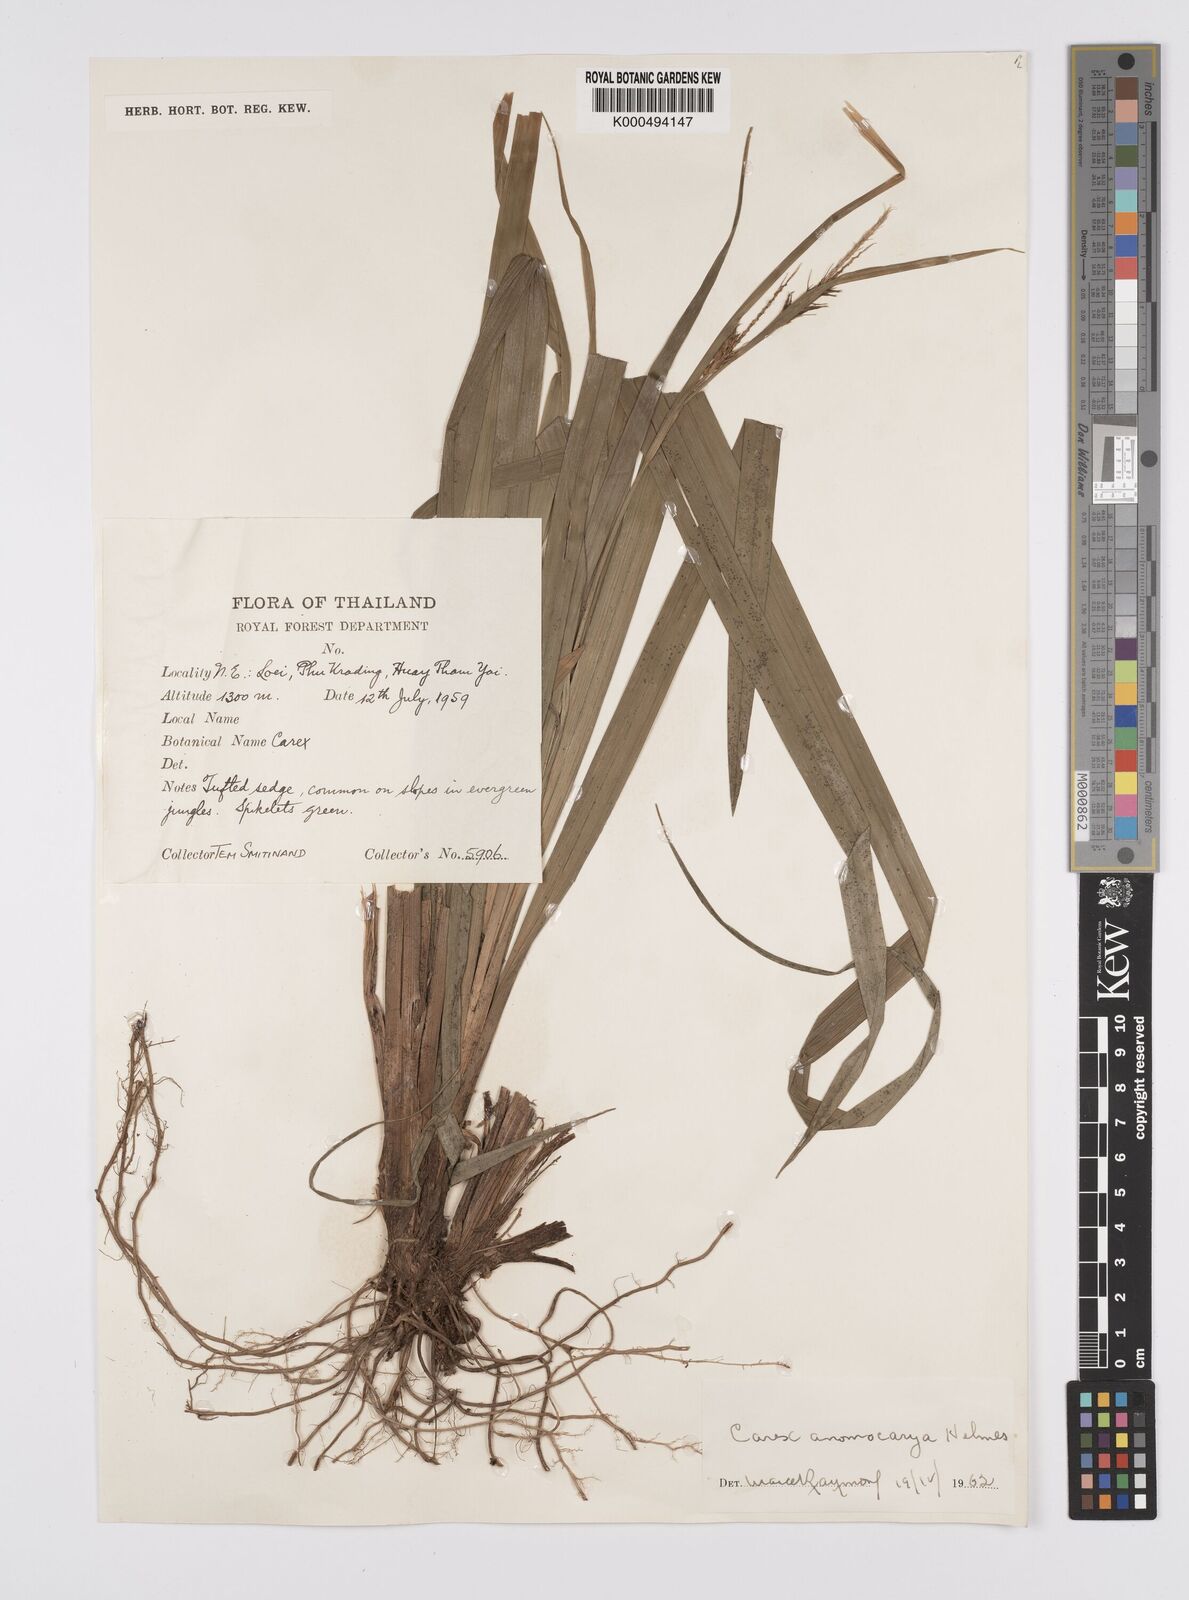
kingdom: Plantae
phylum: Tracheophyta
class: Liliopsida
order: Poales
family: Cyperaceae
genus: Carex
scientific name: Carex harlandii
